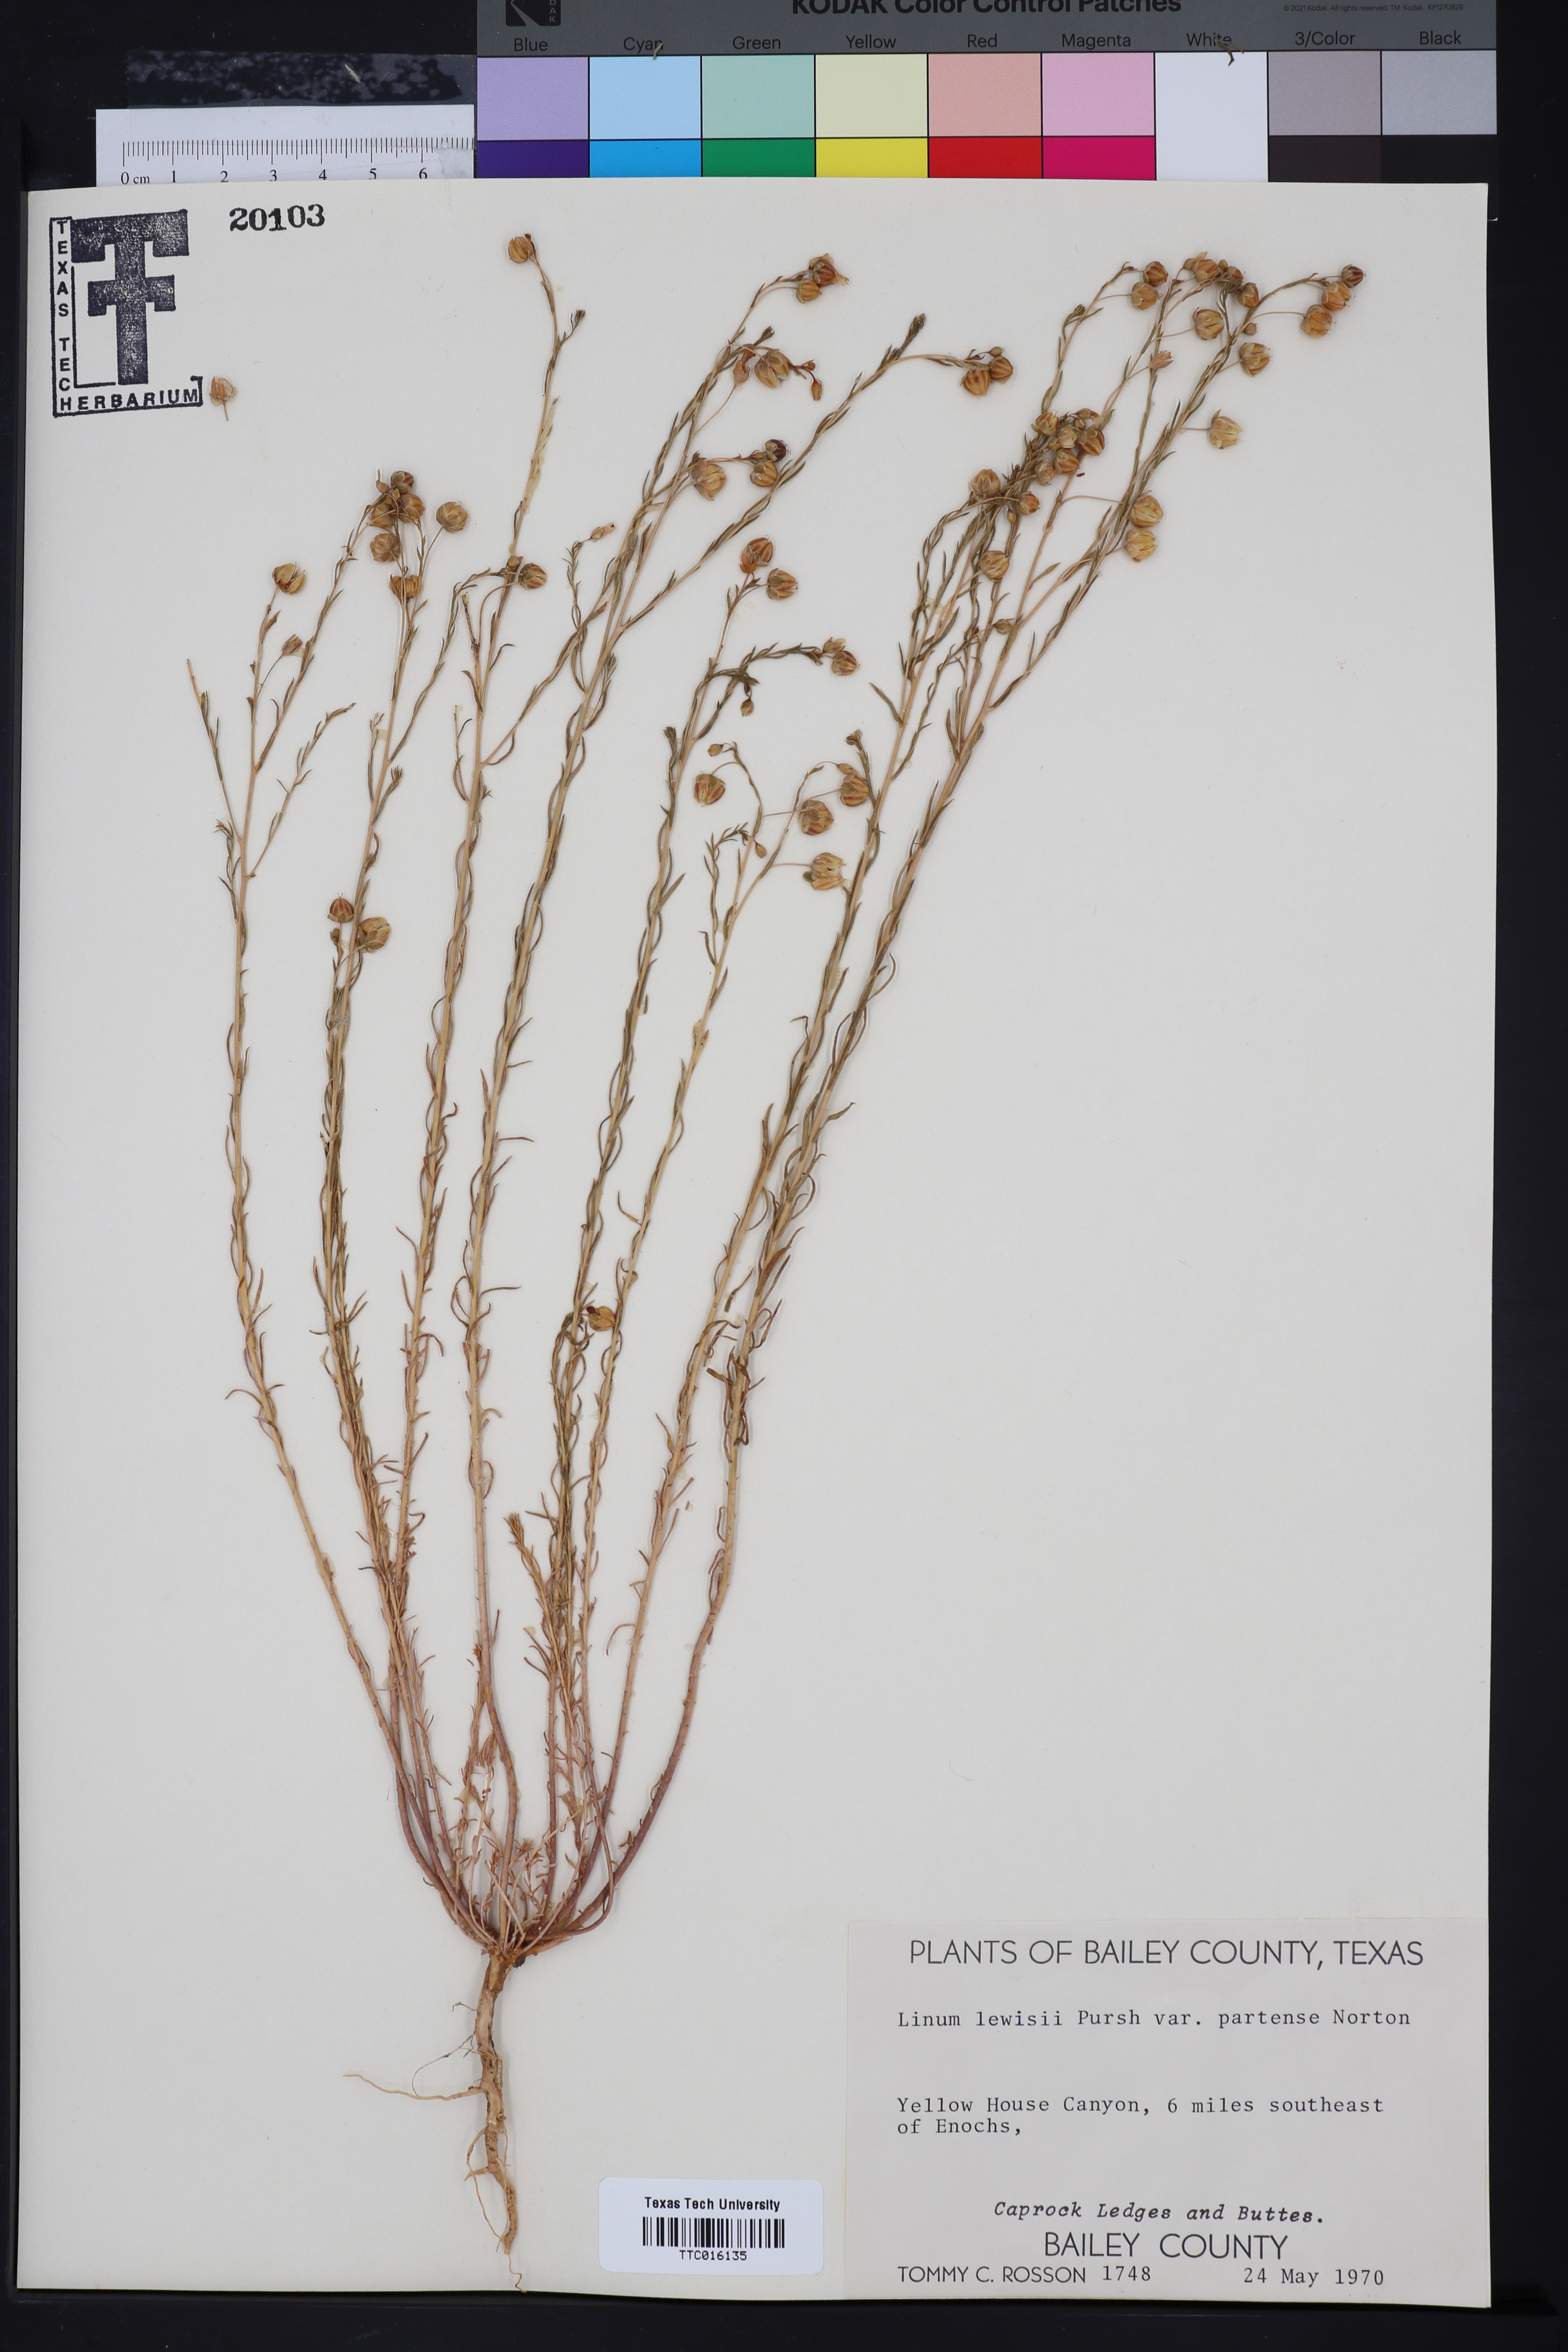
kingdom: Plantae
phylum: Tracheophyta
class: Magnoliopsida
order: Malpighiales
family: Linaceae
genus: Linum
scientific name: Linum lewisii
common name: Prairie flax
